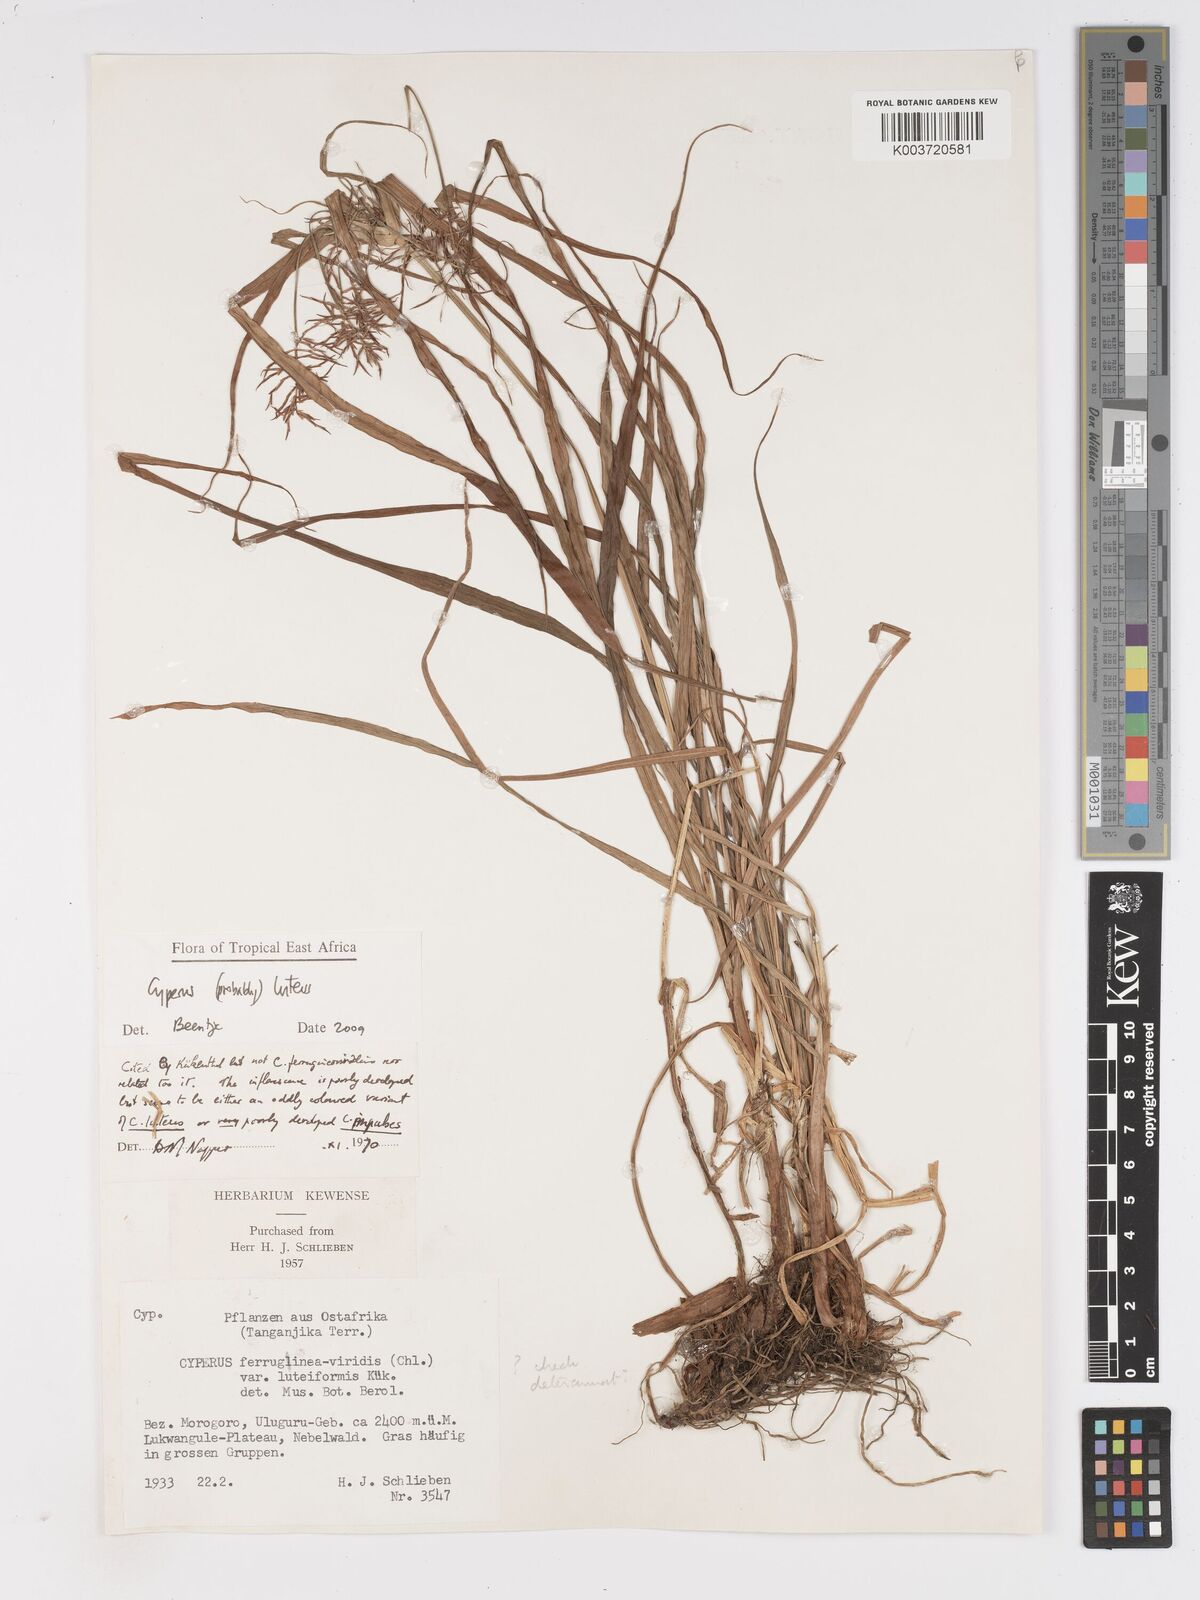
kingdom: Plantae
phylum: Tracheophyta
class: Liliopsida
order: Poales
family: Cyperaceae
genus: Cyperus
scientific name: Cyperus luteus
